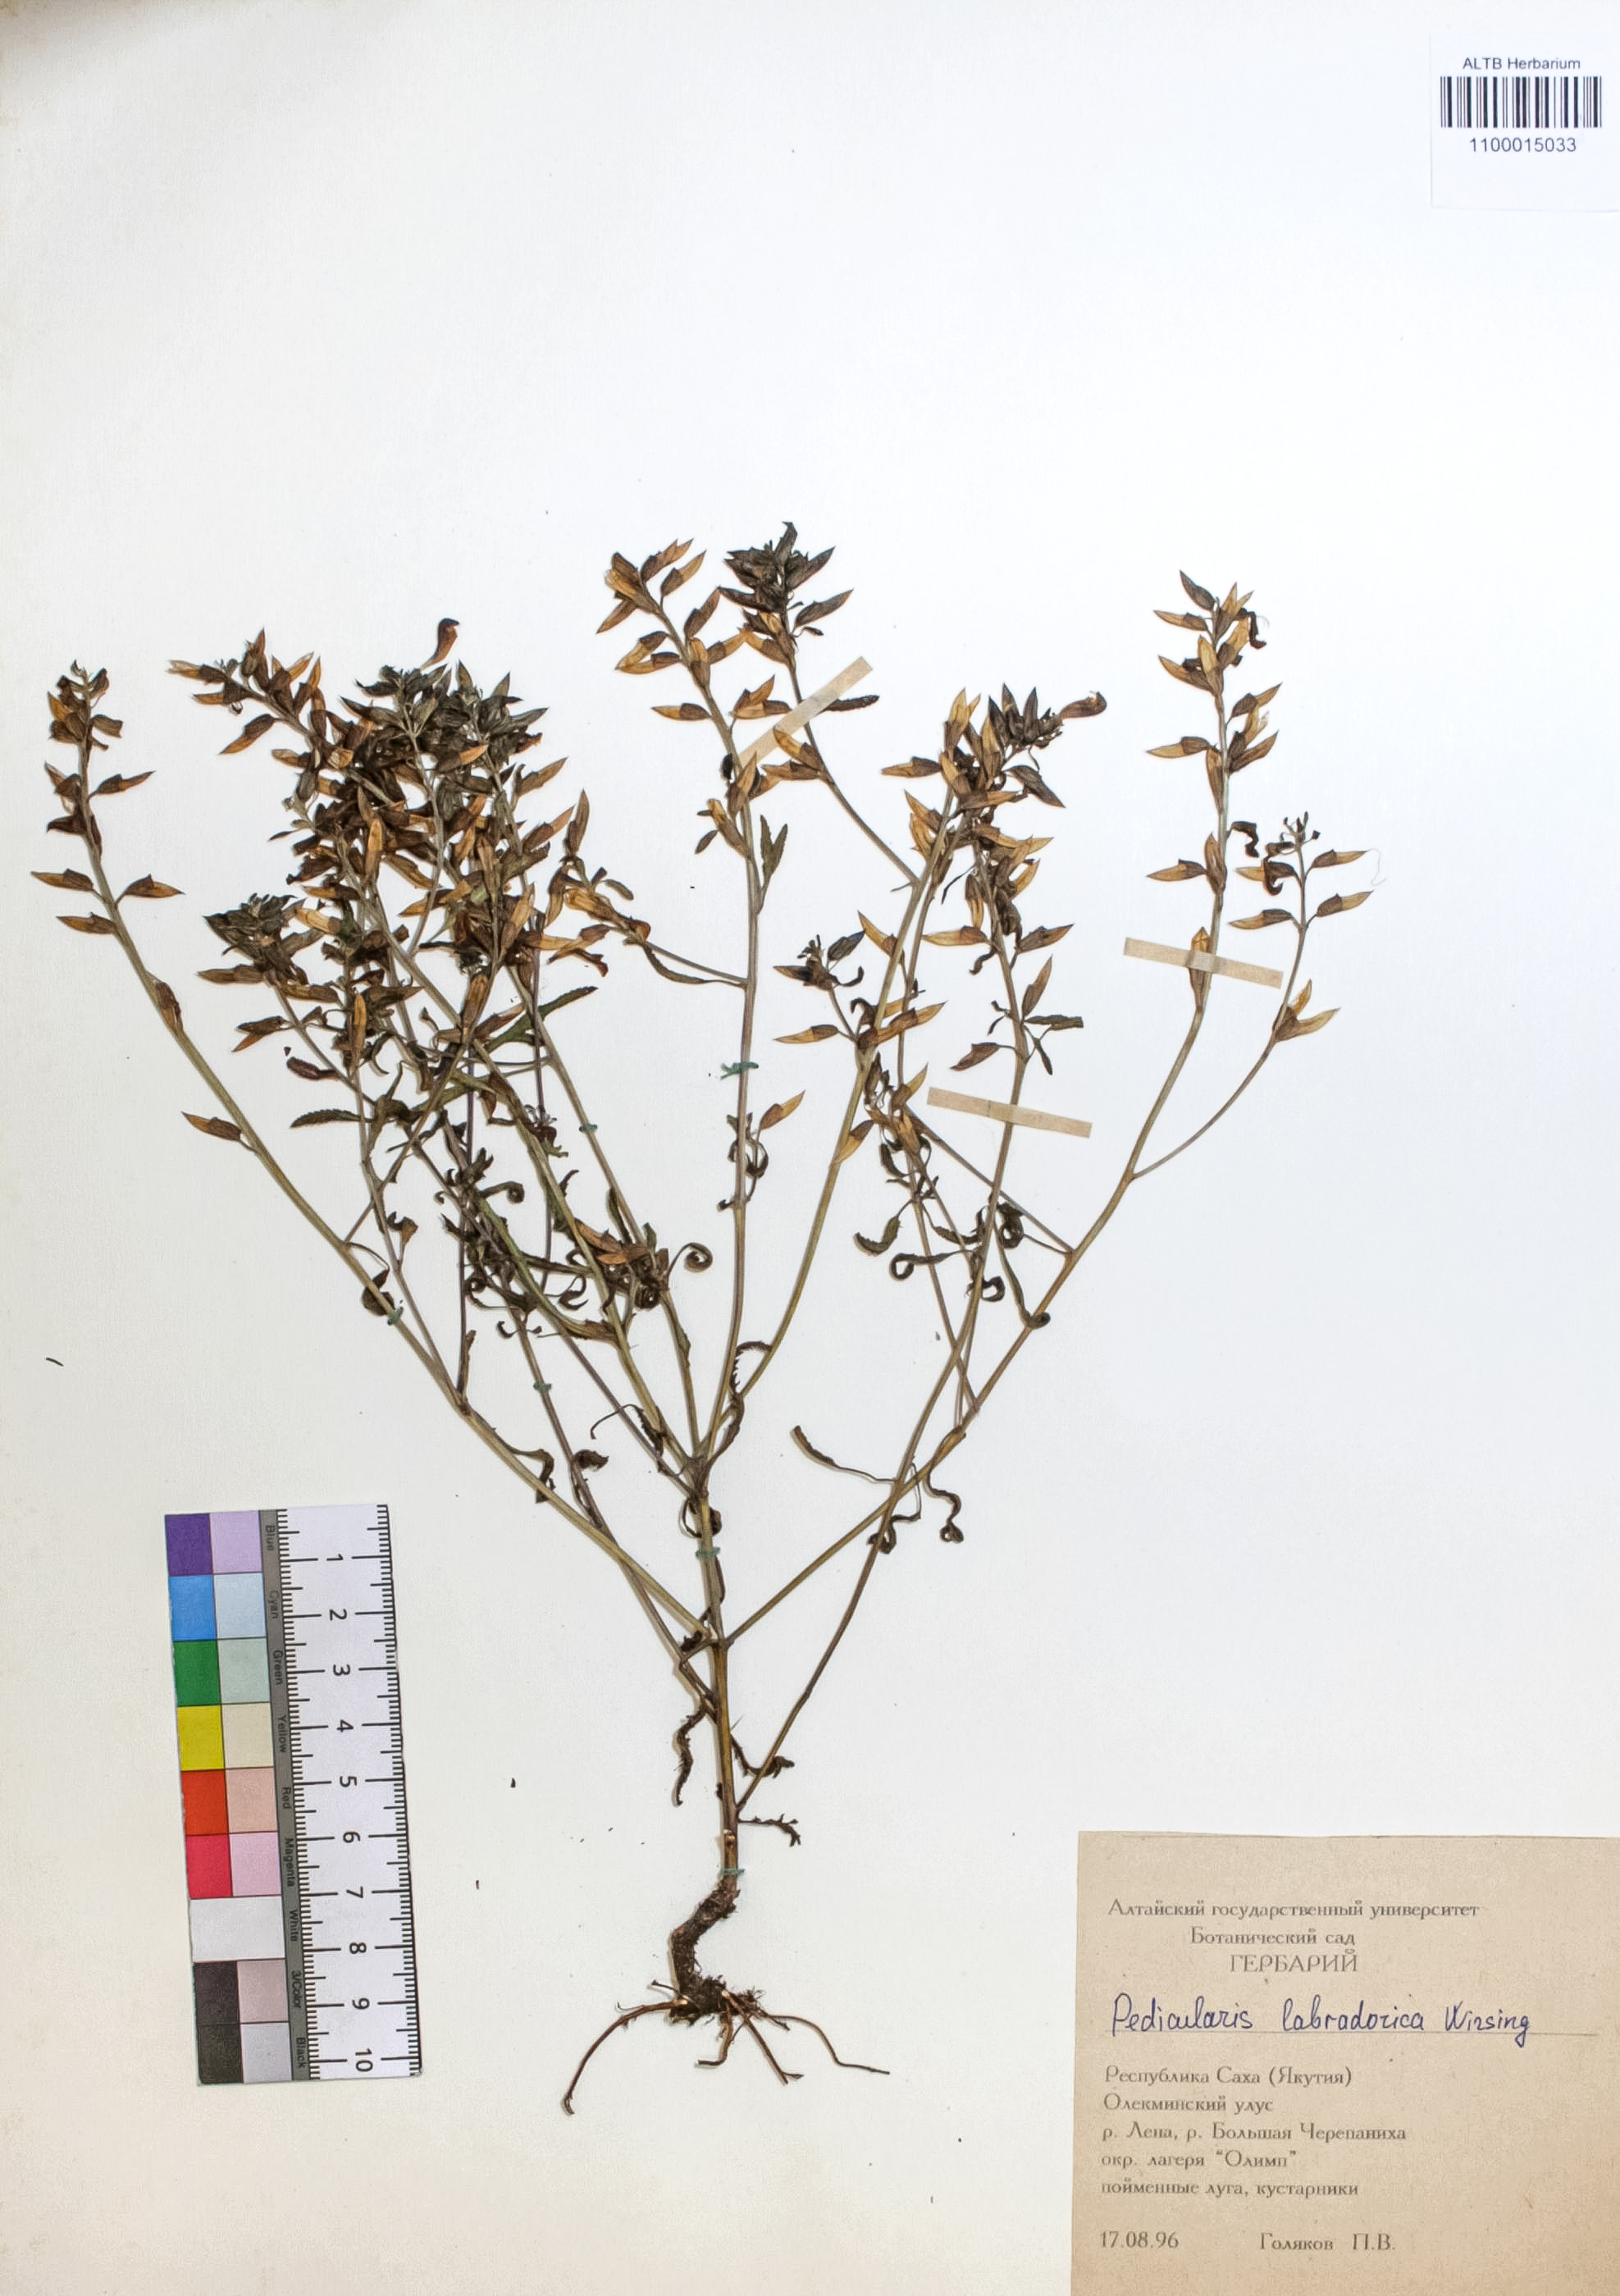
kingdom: Plantae
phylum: Tracheophyta
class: Magnoliopsida
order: Lamiales
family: Orobanchaceae
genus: Pedicularis
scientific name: Pedicularis labradorica
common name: Labrador lousewort
